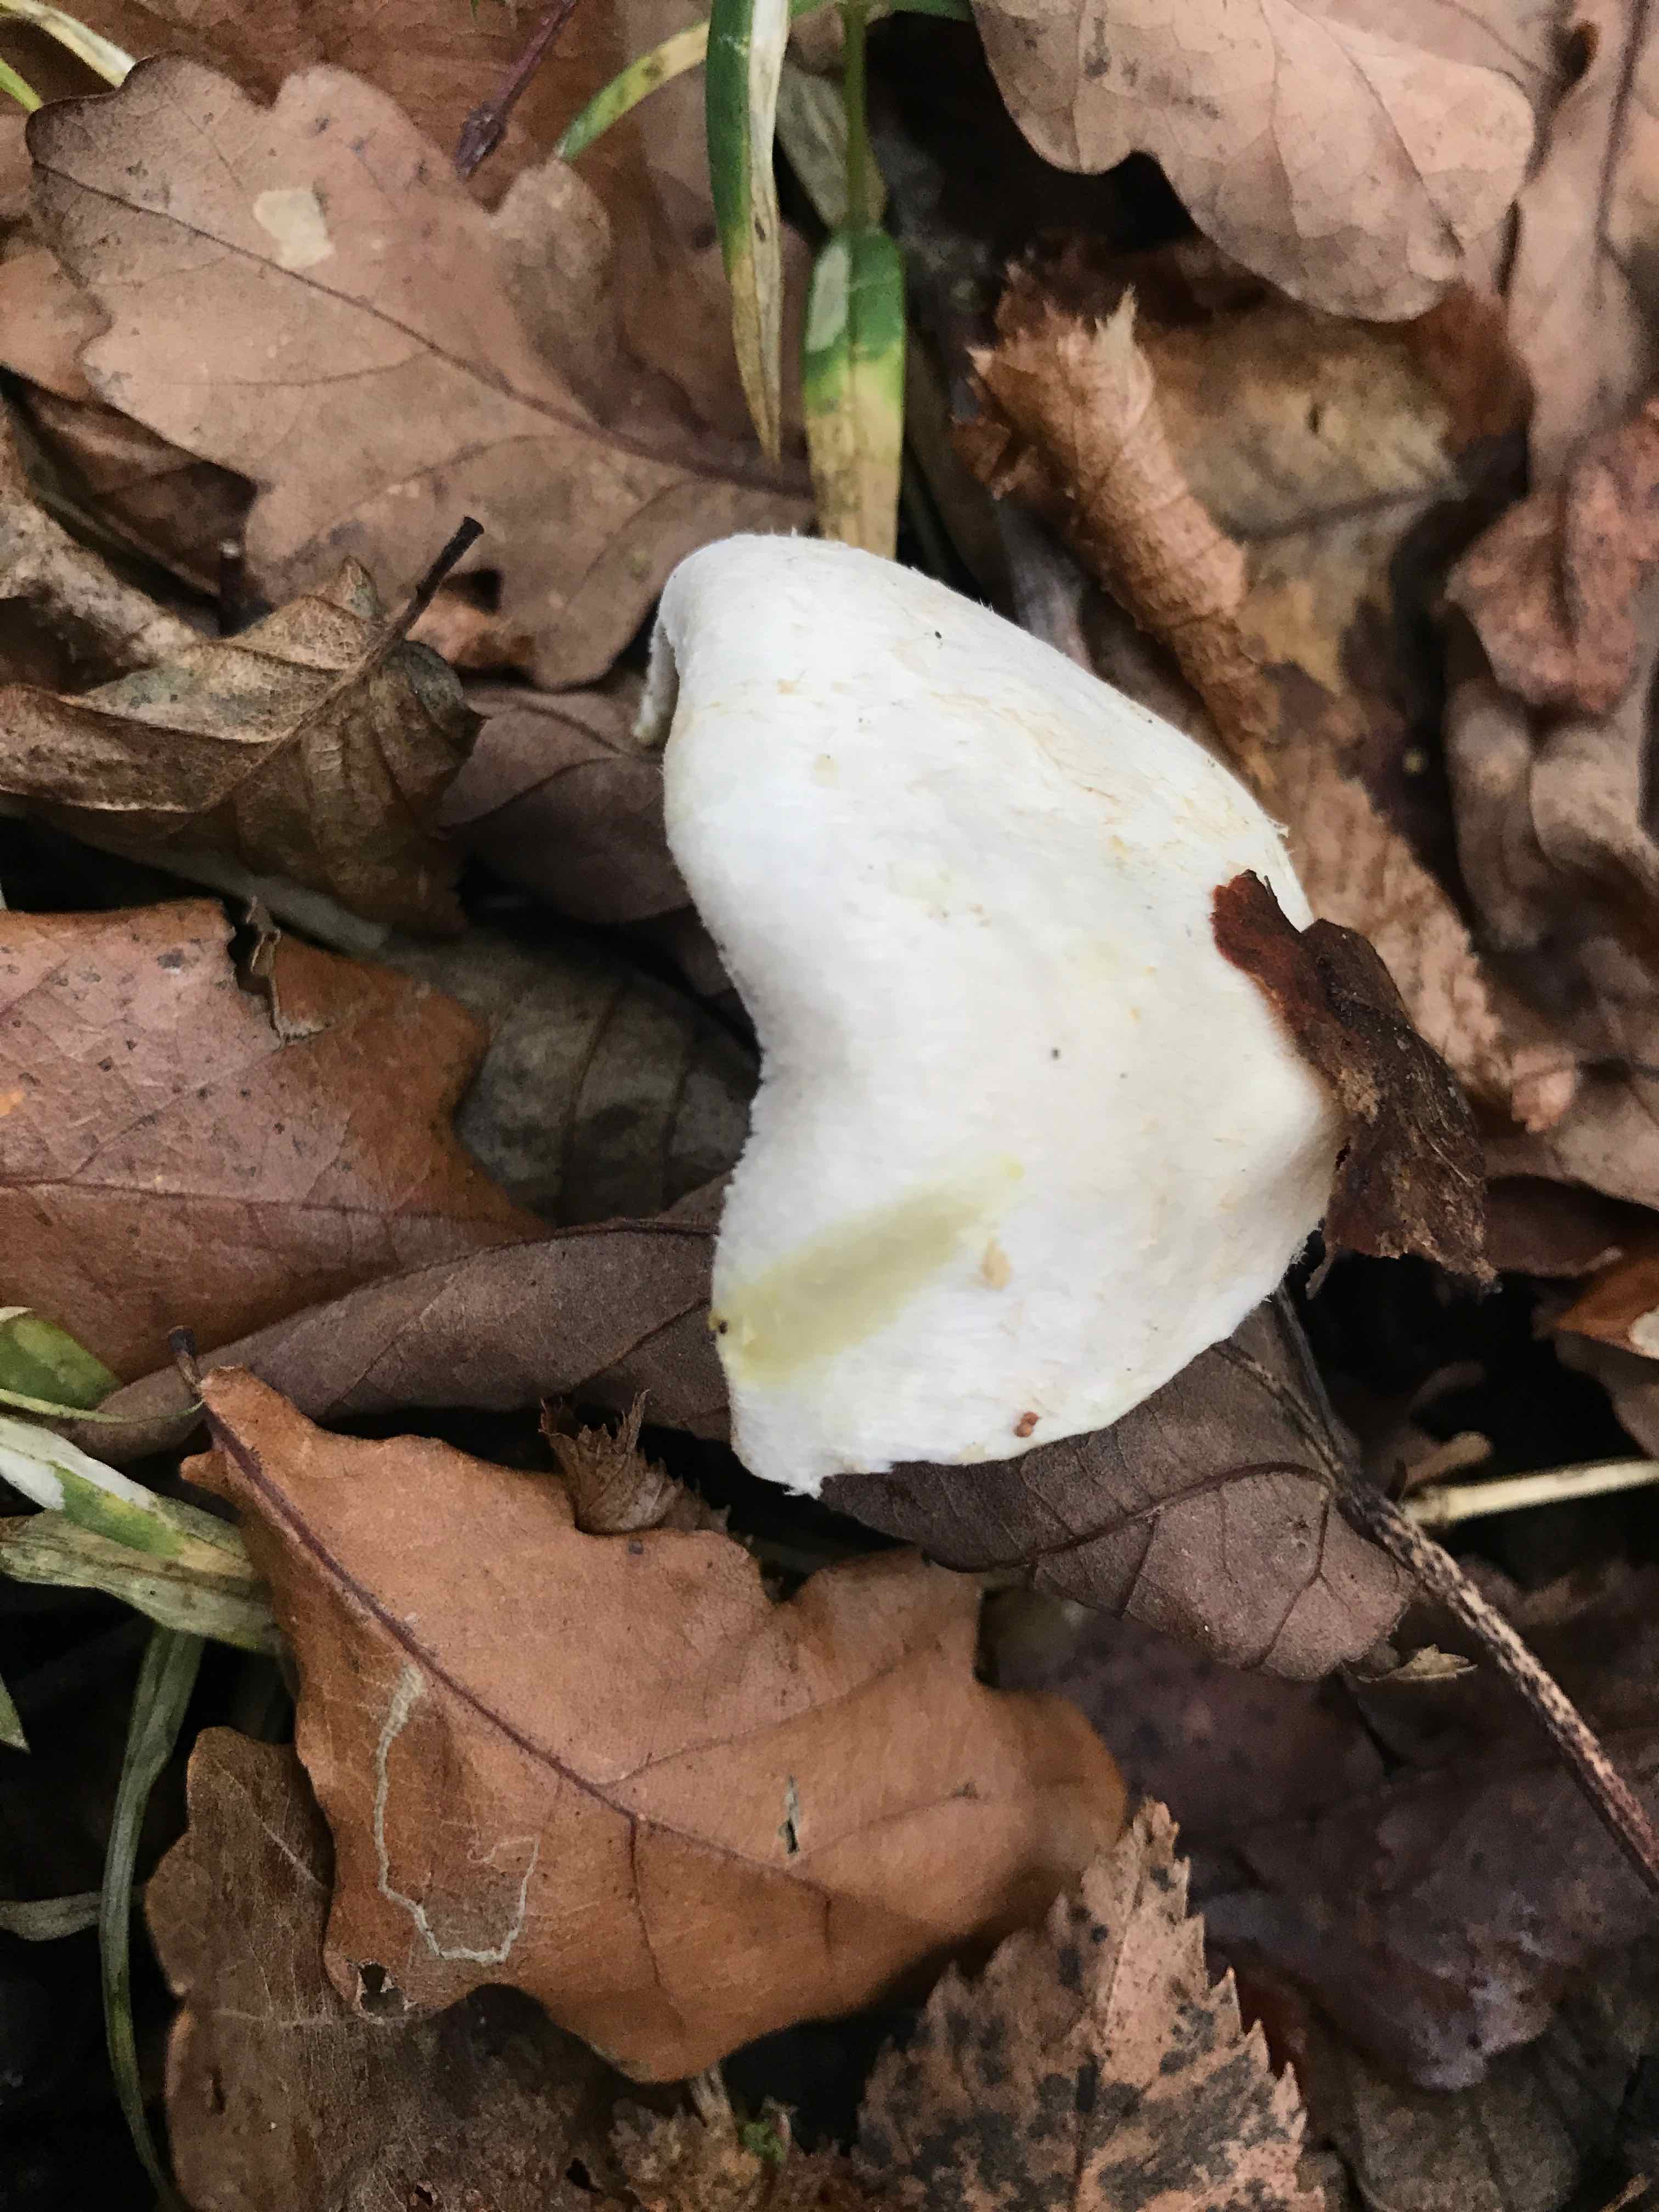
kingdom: Fungi
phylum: Basidiomycota
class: Agaricomycetes
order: Agaricales
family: Agaricaceae
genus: Agaricus
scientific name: Agaricus
